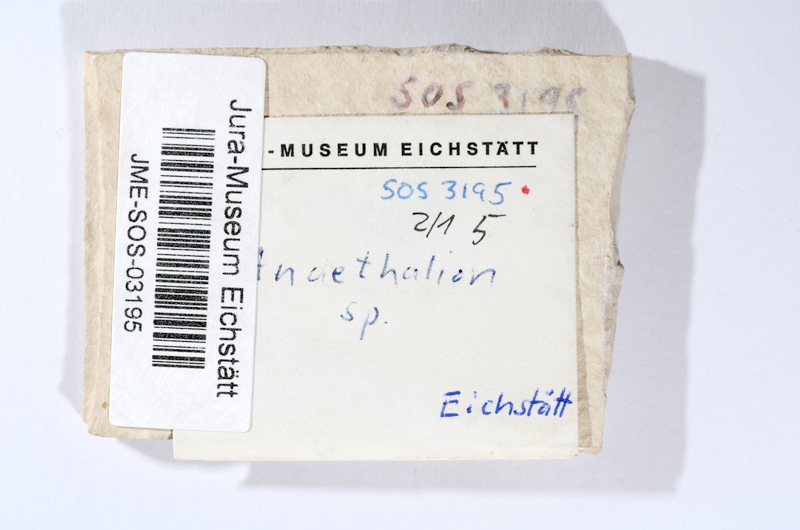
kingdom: Animalia
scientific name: Animalia
